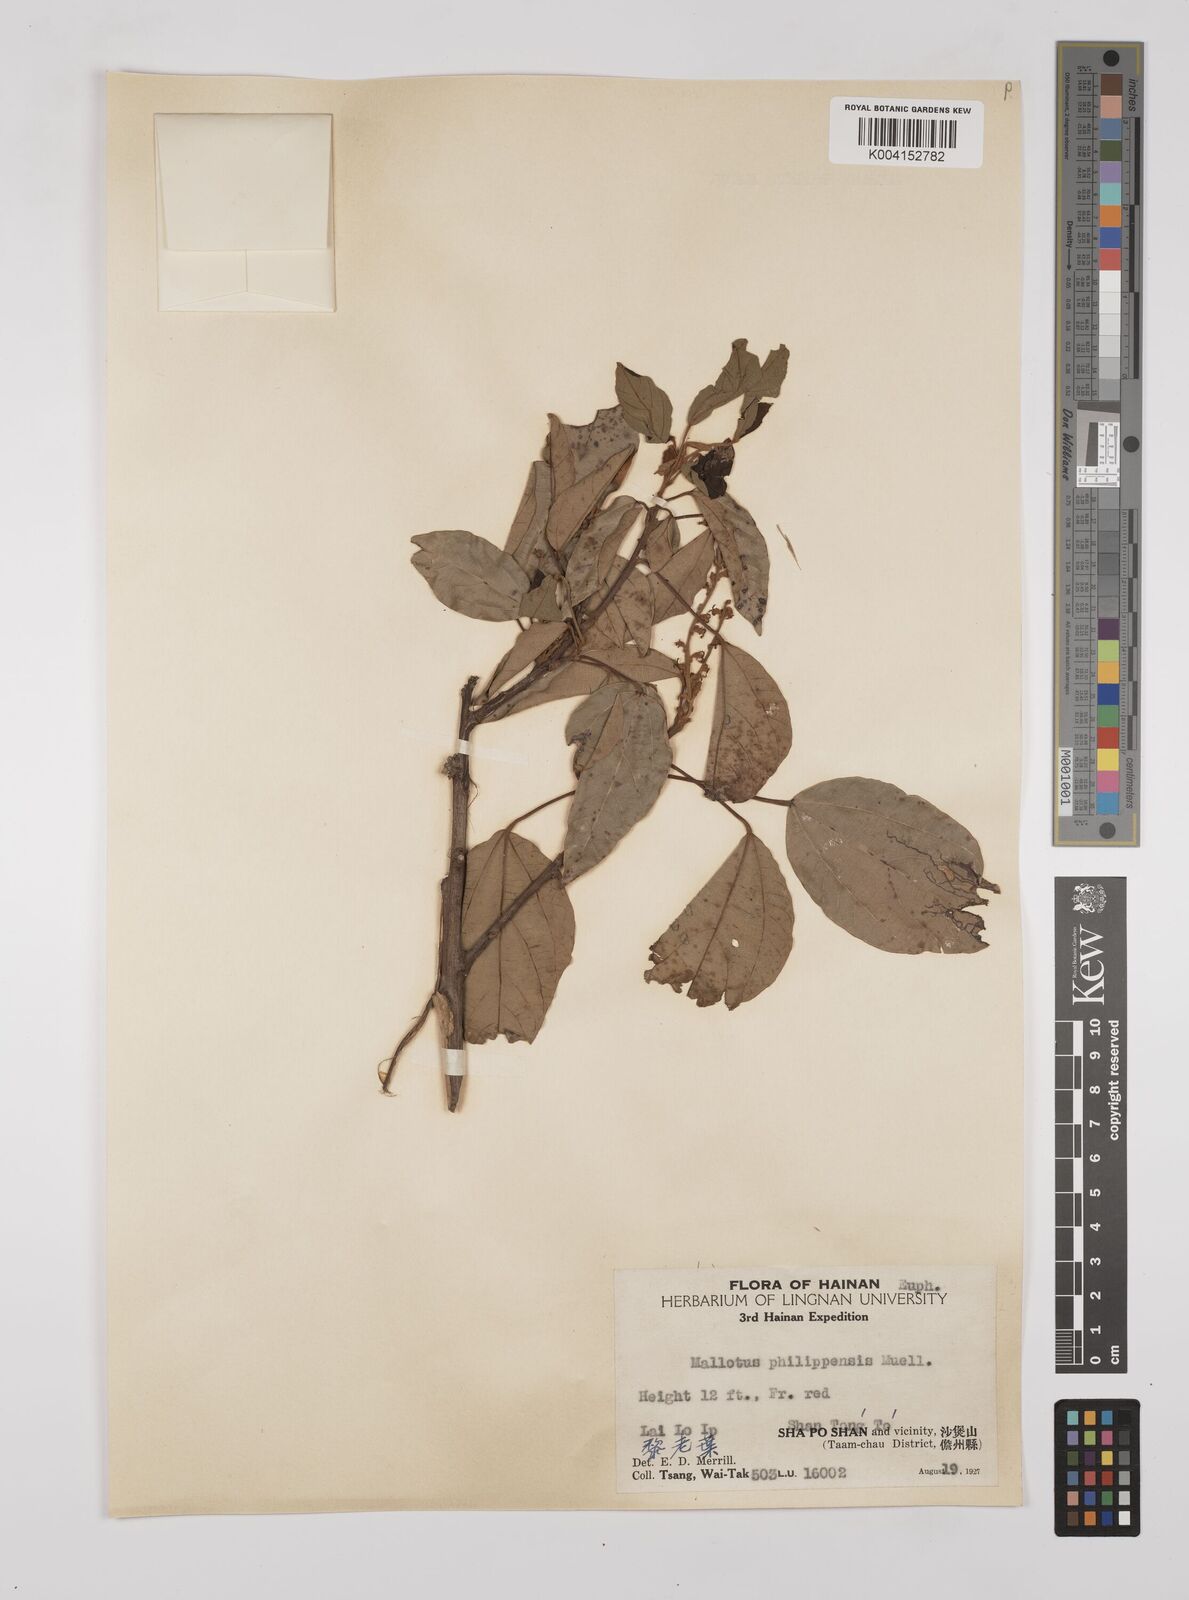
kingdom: Plantae
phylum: Tracheophyta
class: Magnoliopsida
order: Malpighiales
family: Euphorbiaceae
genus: Mallotus
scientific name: Mallotus philippensis
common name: Kamala tree
